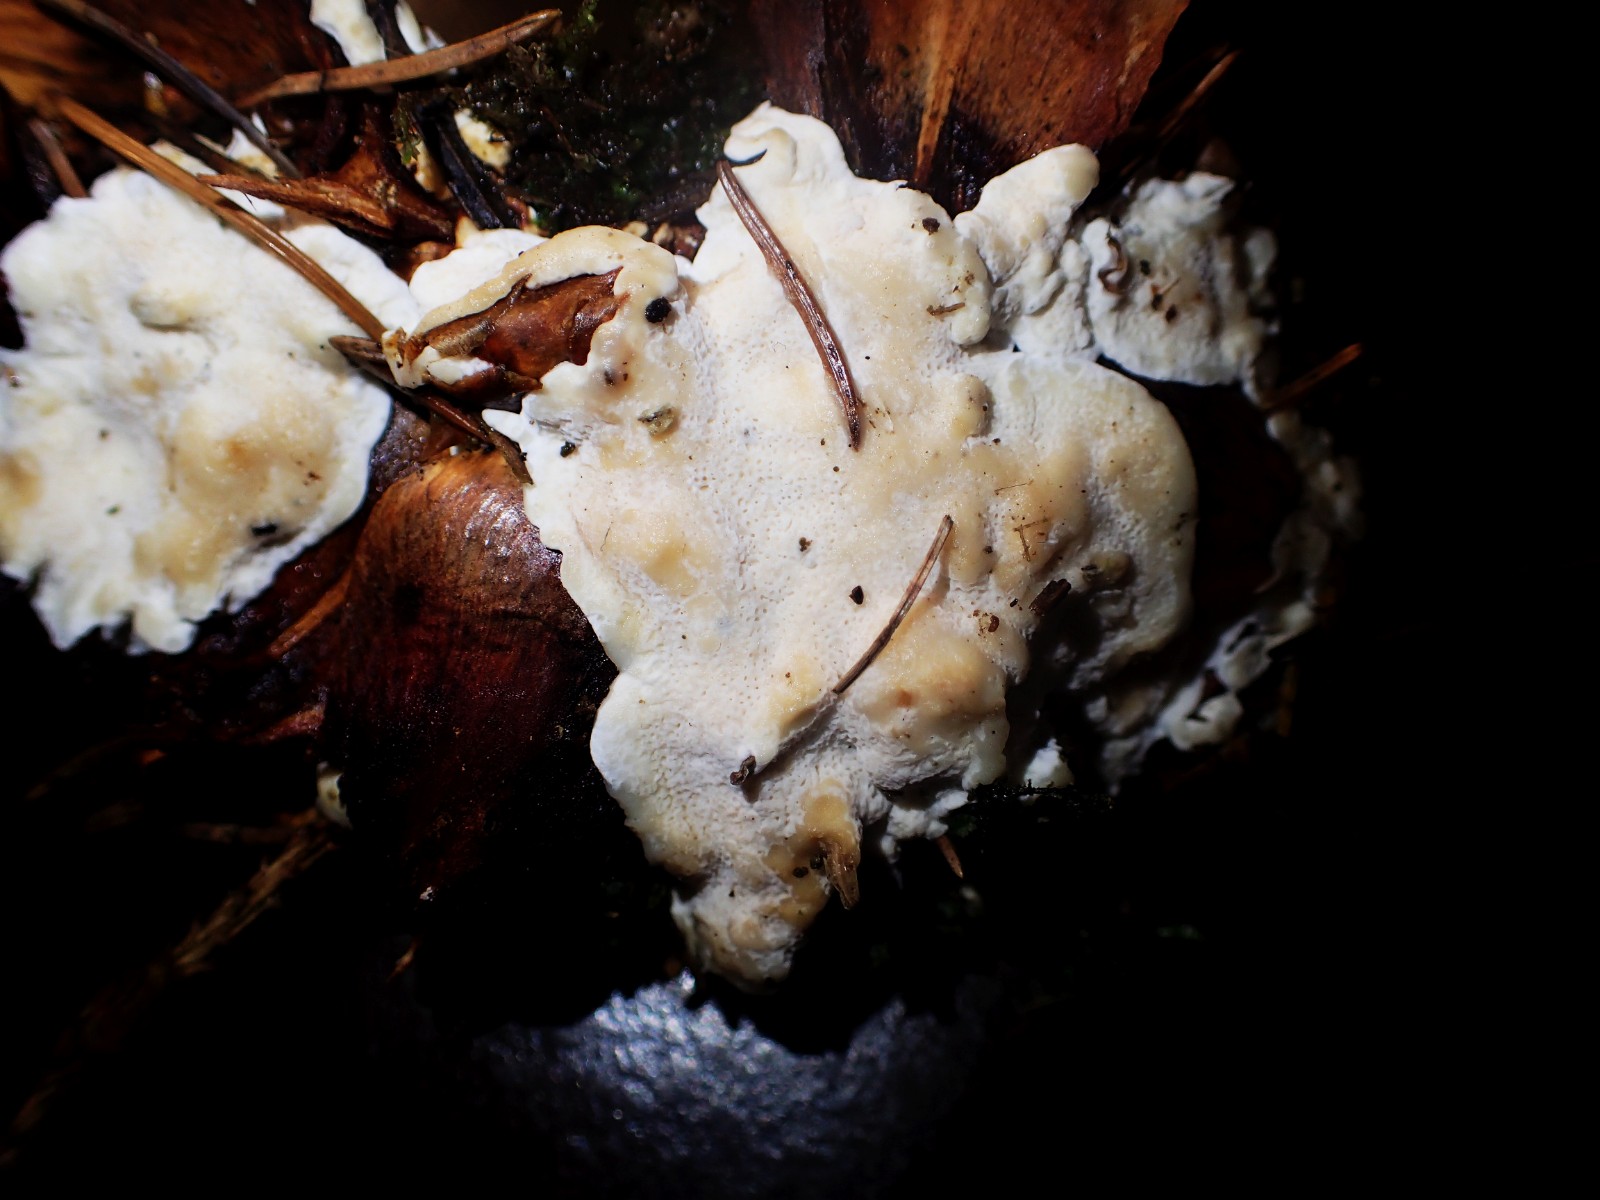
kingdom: Fungi
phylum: Basidiomycota
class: Agaricomycetes
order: Russulales
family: Bondarzewiaceae
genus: Heterobasidion
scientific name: Heterobasidion
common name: rodfordærver
